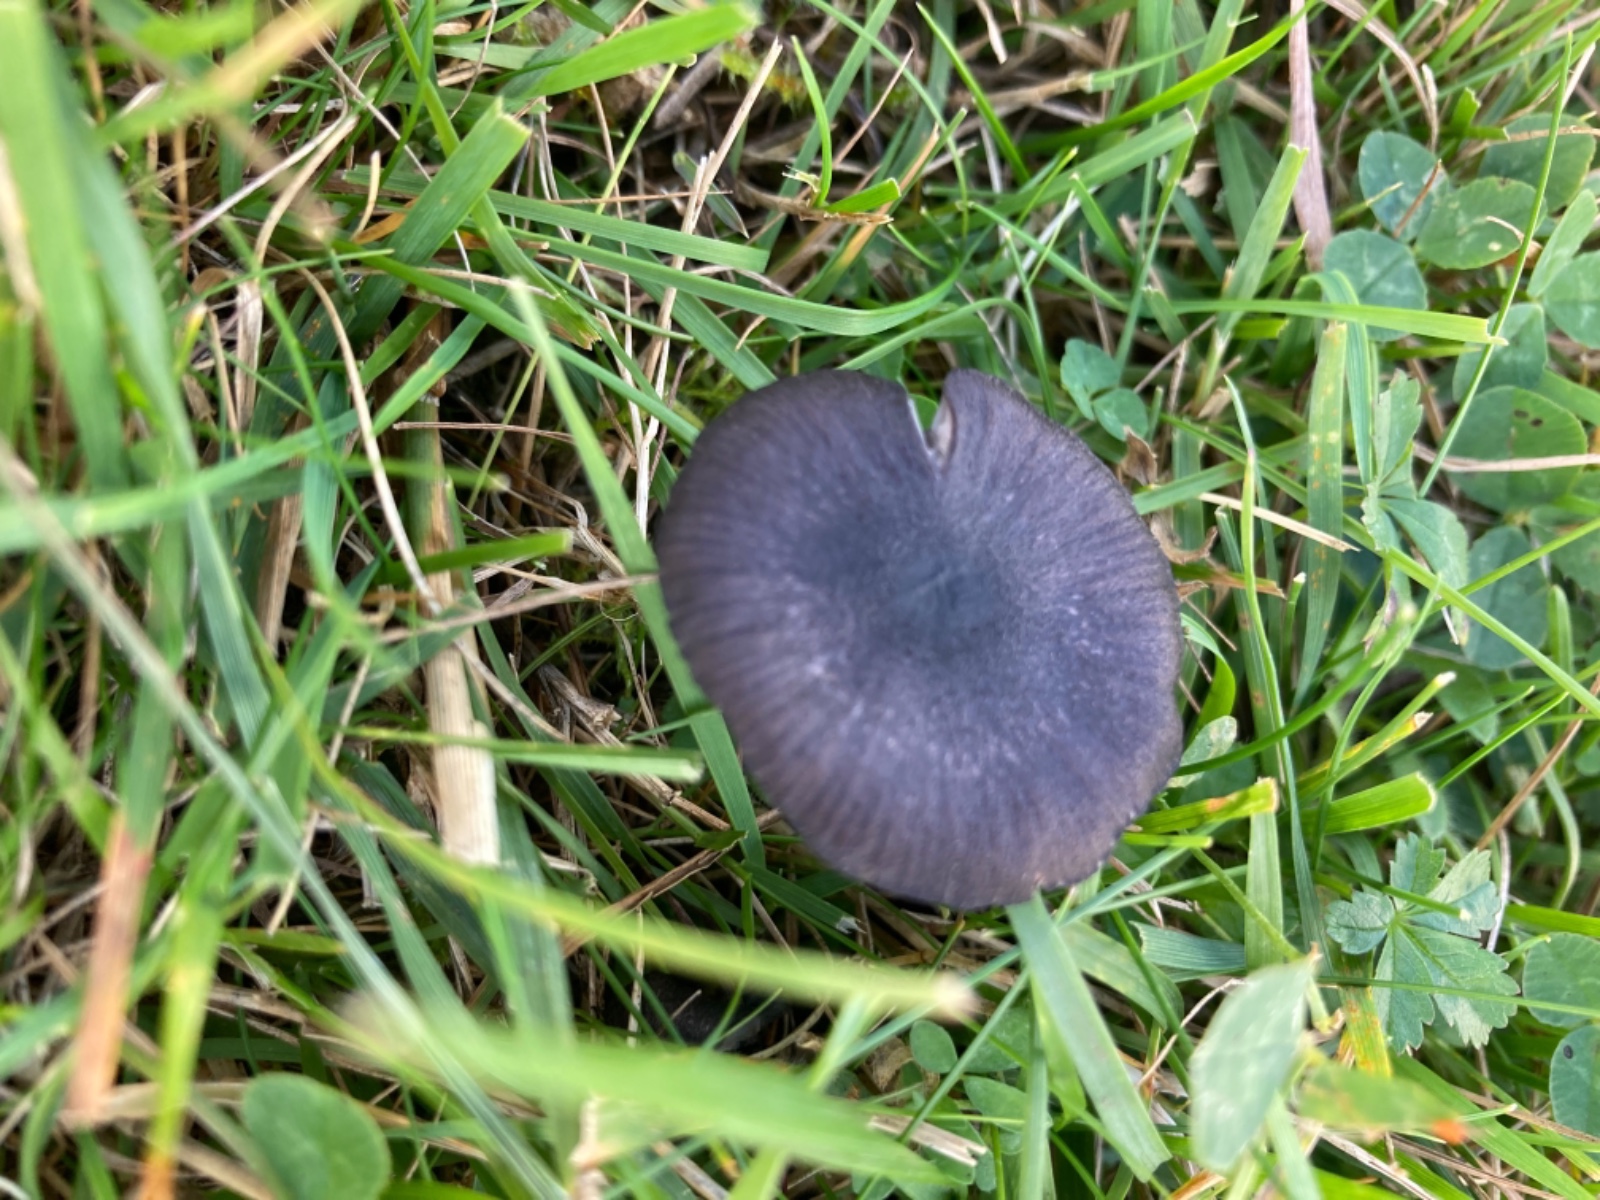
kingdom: Fungi
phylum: Basidiomycota
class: Agaricomycetes
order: Agaricales
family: Entolomataceae
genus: Entoloma
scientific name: Entoloma chalybeum
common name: blåbladet rødblad
